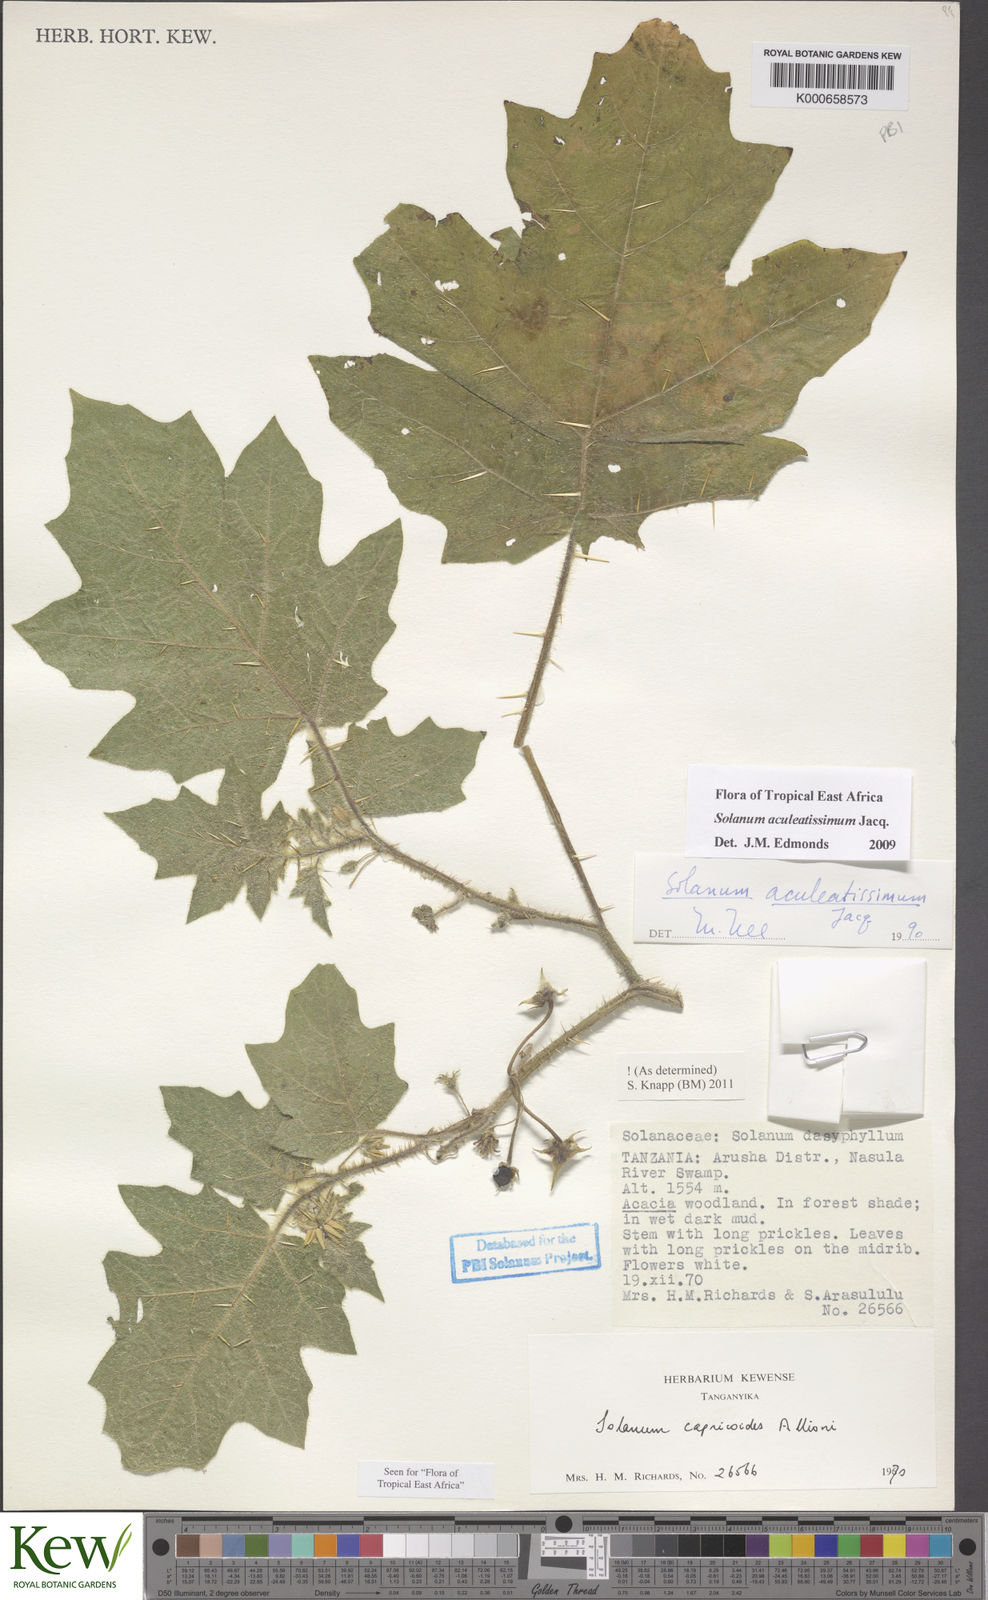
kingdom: Plantae
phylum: Tracheophyta
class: Magnoliopsida
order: Solanales
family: Solanaceae
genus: Solanum
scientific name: Solanum aculeatissimum
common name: Dutch eggplant
